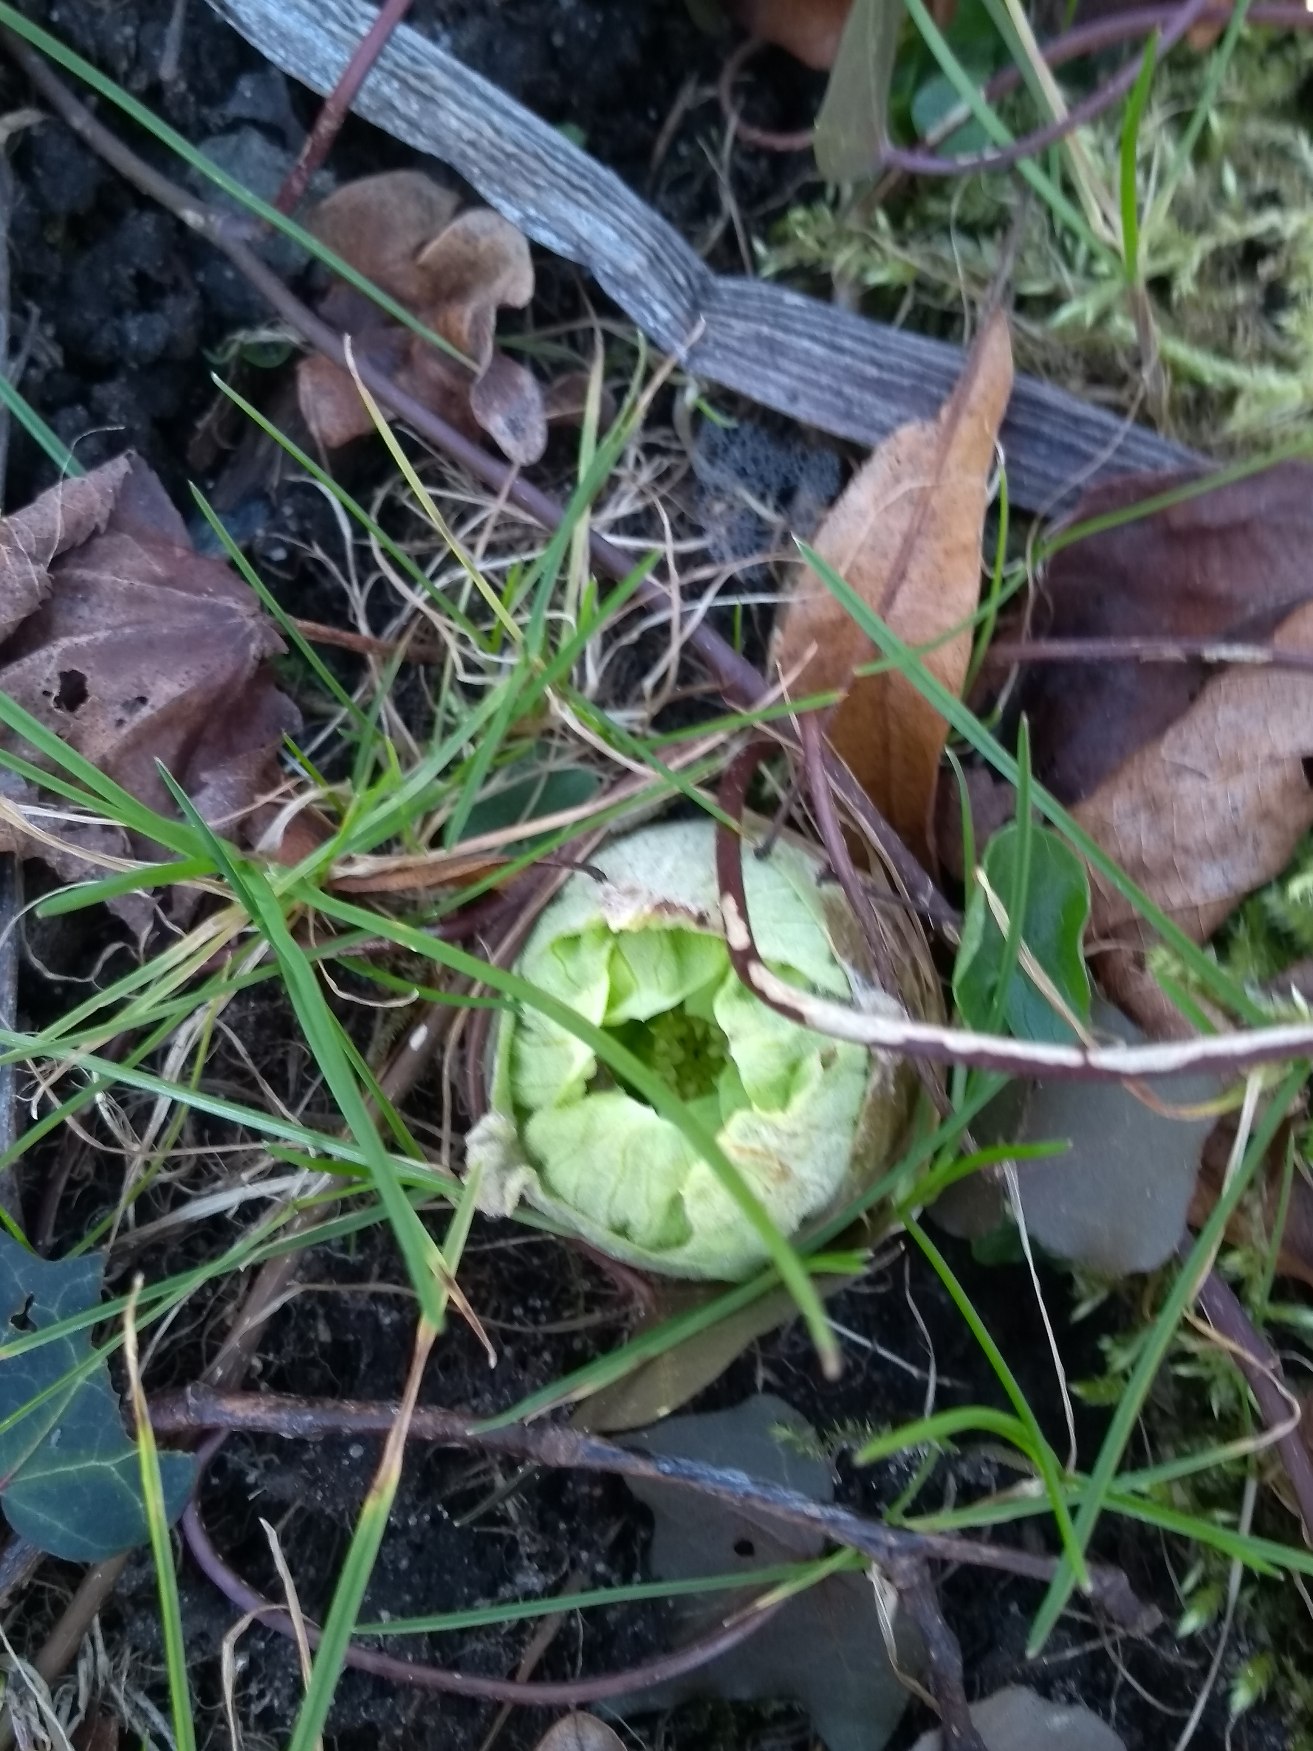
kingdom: Plantae
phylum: Tracheophyta
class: Magnoliopsida
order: Asterales
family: Asteraceae
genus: Petasites
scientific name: Petasites japonicus
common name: Japansk hestehov
